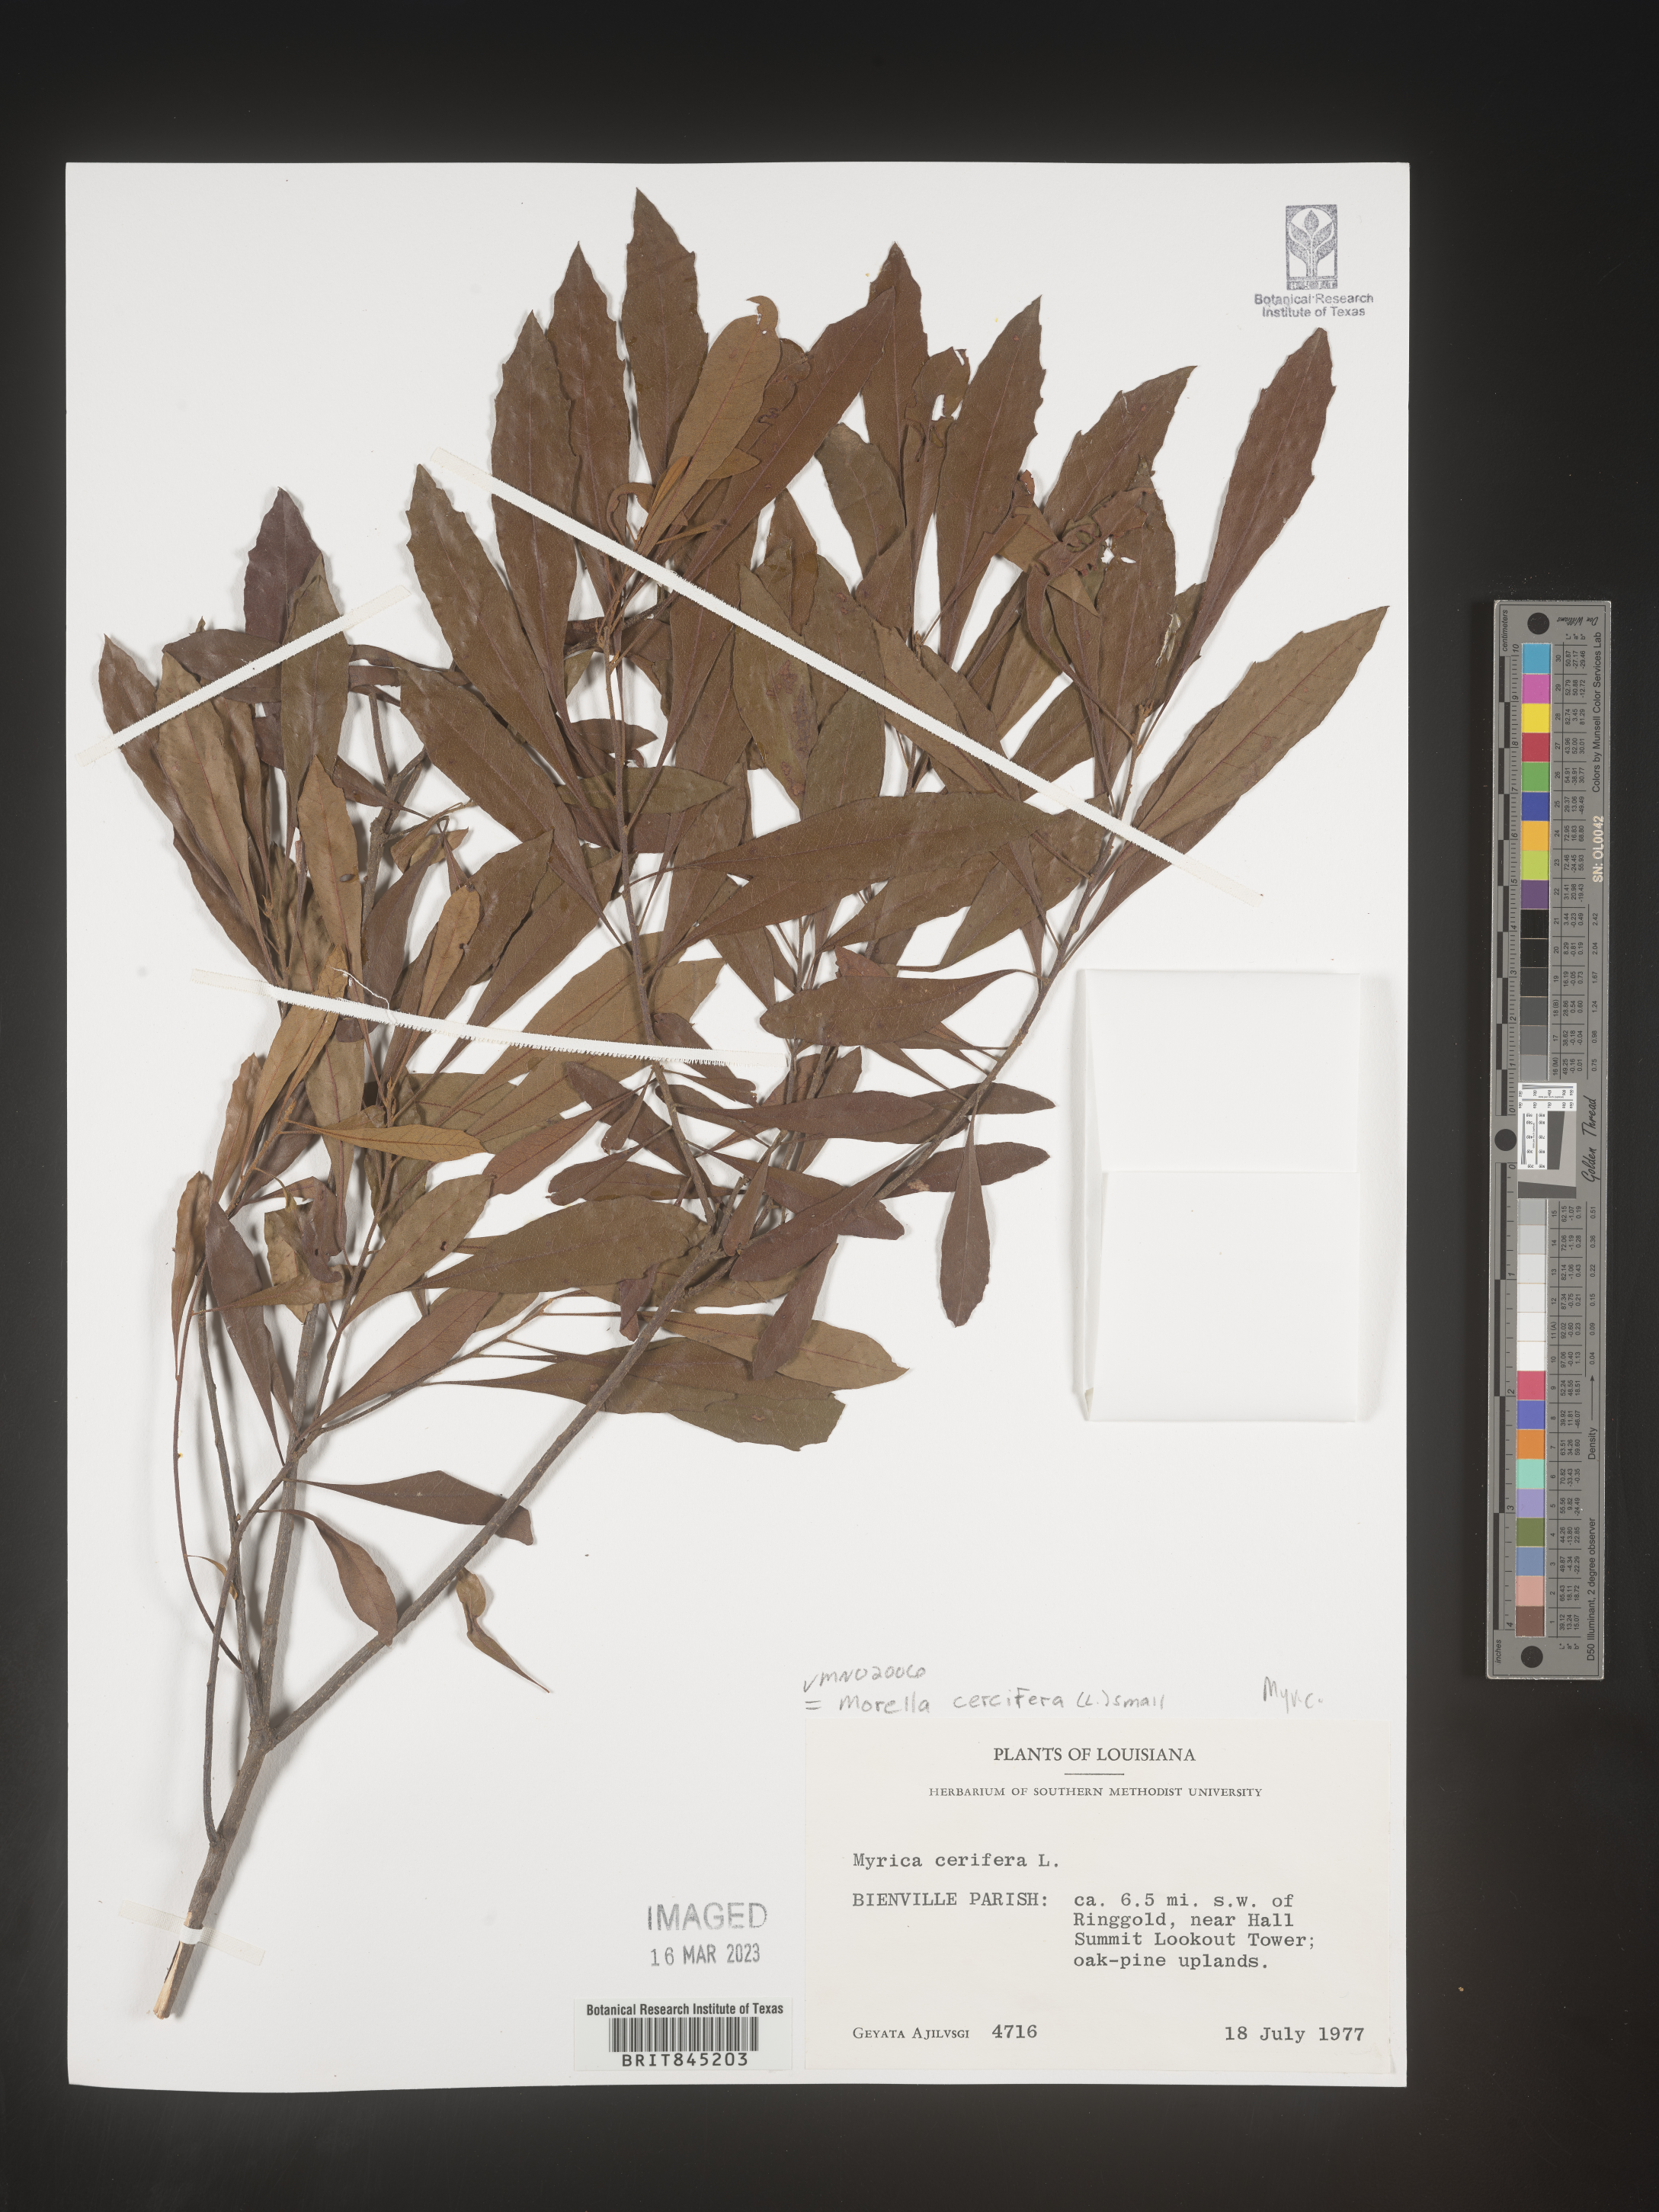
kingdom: Plantae
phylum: Tracheophyta
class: Magnoliopsida
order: Fagales
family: Myricaceae
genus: Morella
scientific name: Morella cerifera
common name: Wax myrtle
